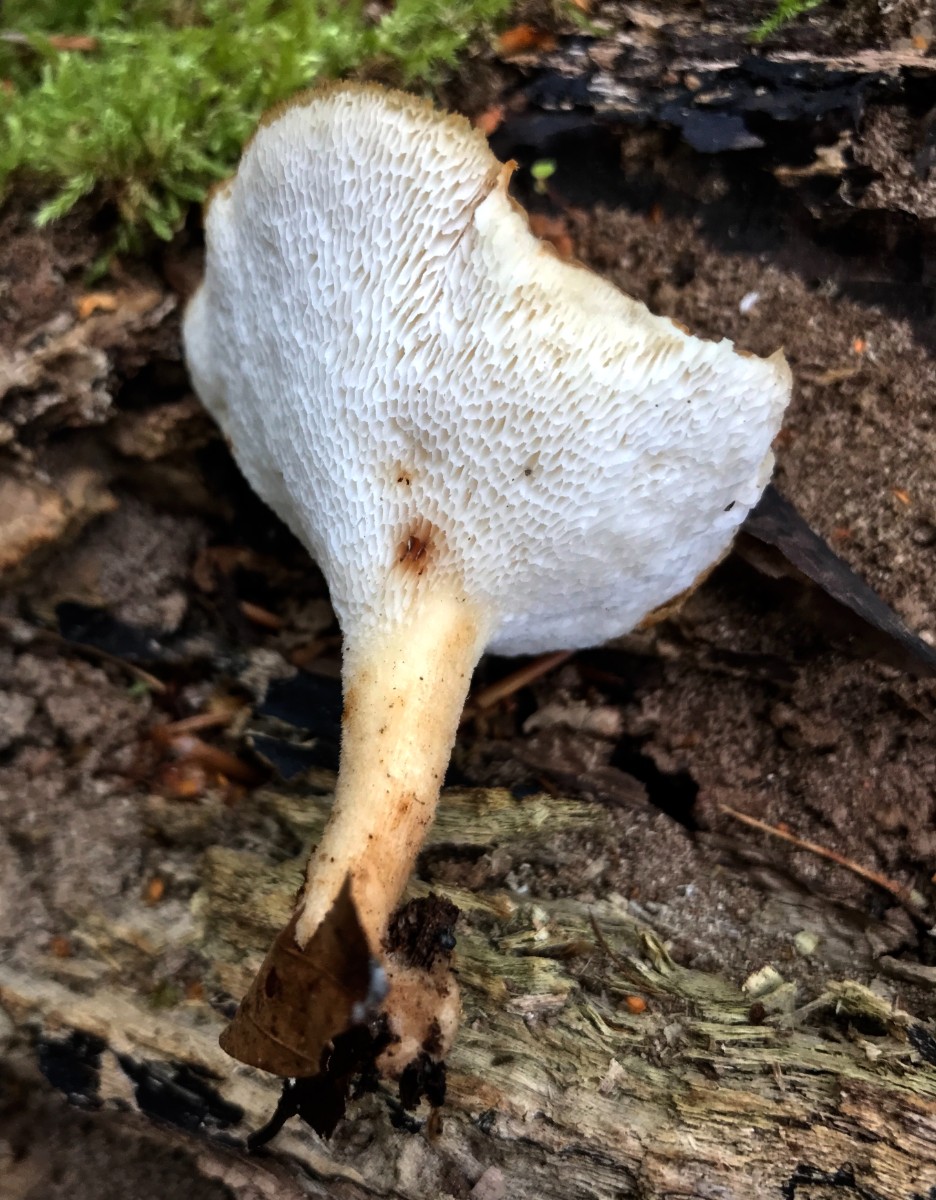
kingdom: Fungi
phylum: Basidiomycota
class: Agaricomycetes
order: Polyporales
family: Polyporaceae
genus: Polyporus
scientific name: Polyporus tuberaster
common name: knoldet stilkporesvamp
